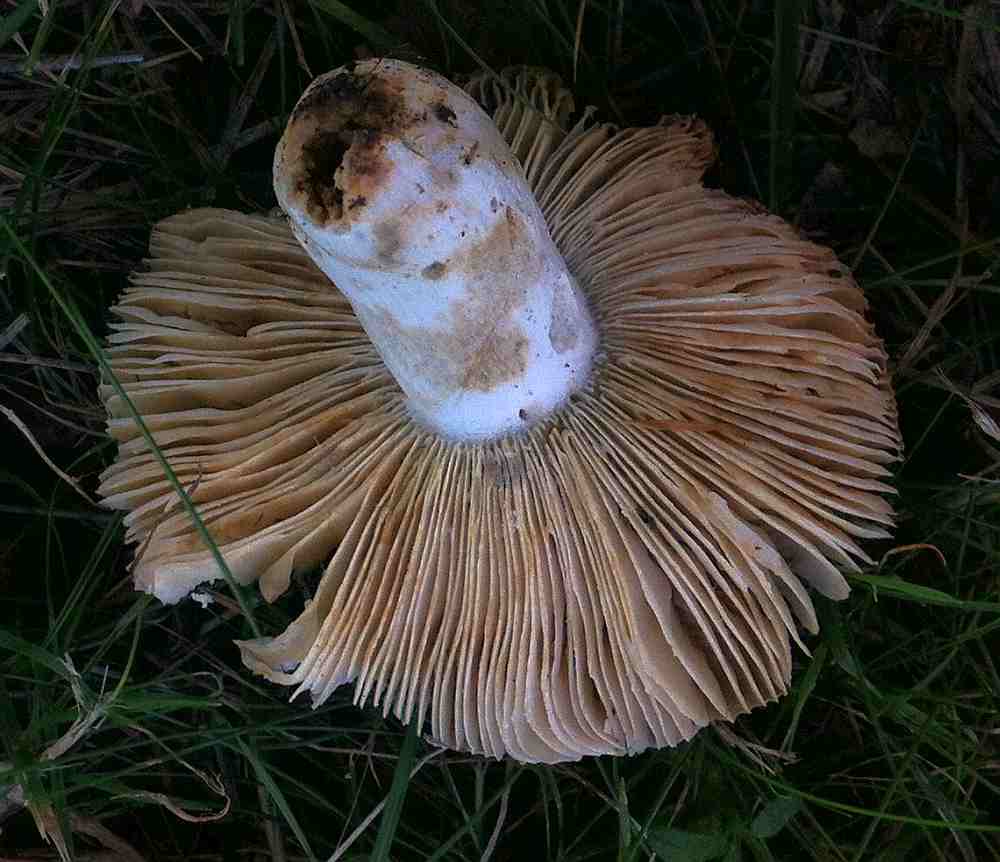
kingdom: Fungi
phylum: Basidiomycota
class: Agaricomycetes
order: Russulales
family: Russulaceae
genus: Russula
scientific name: Russula romellii
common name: romells skørhat
